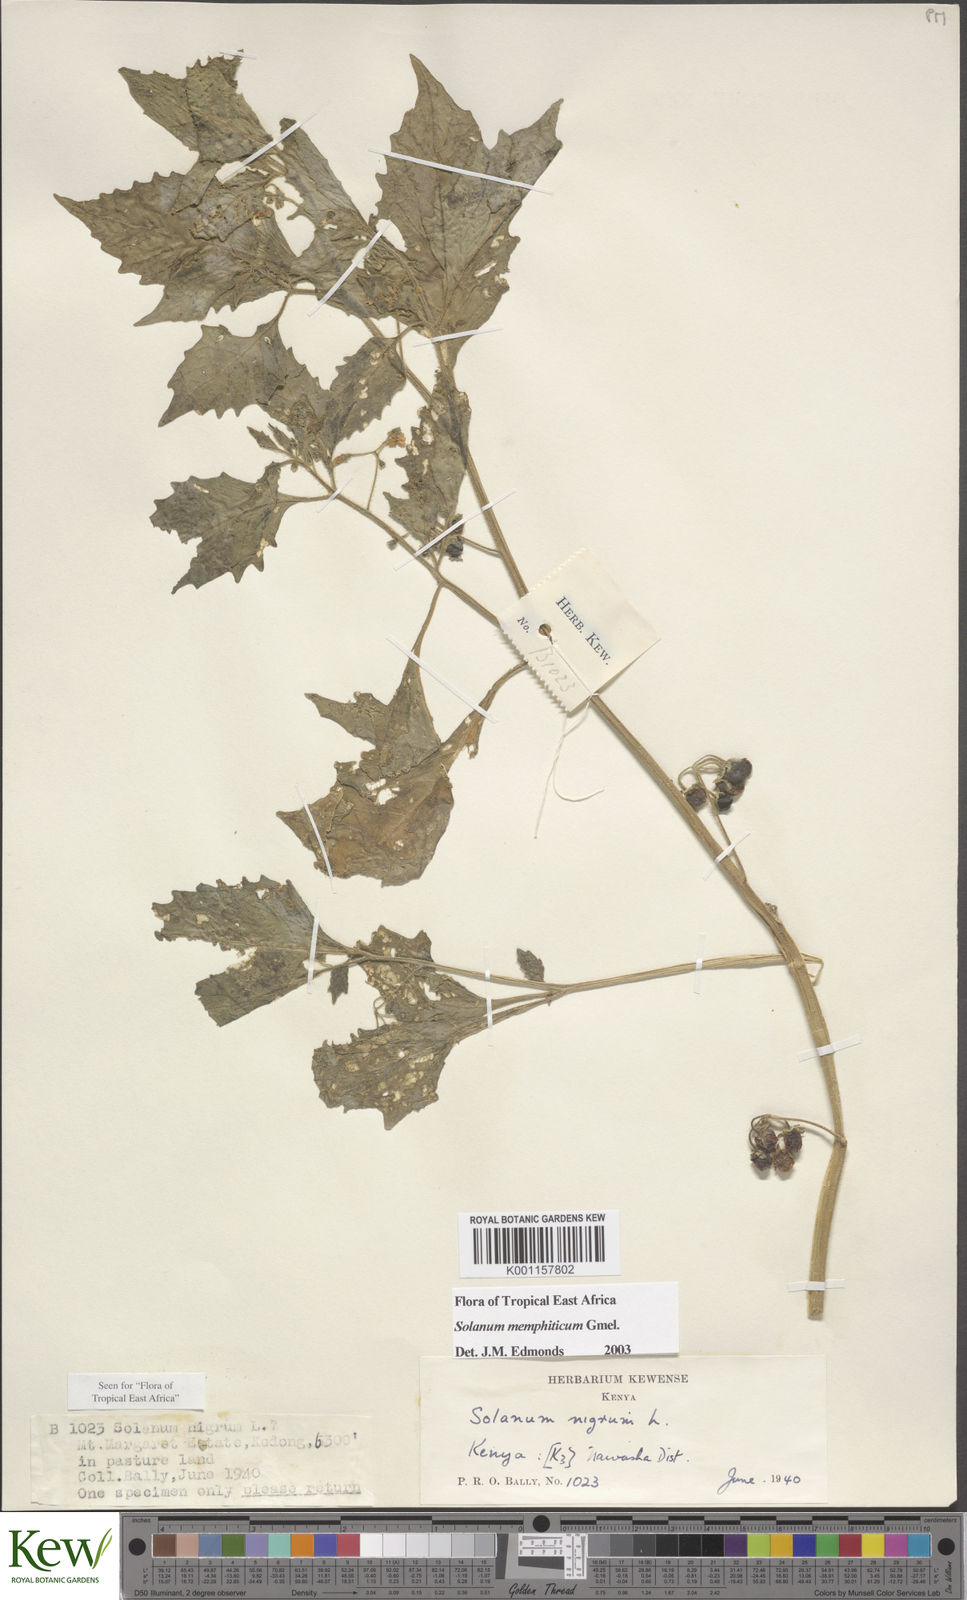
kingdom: Plantae
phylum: Tracheophyta
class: Magnoliopsida
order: Solanales
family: Solanaceae
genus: Solanum
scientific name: Solanum memphiticum
